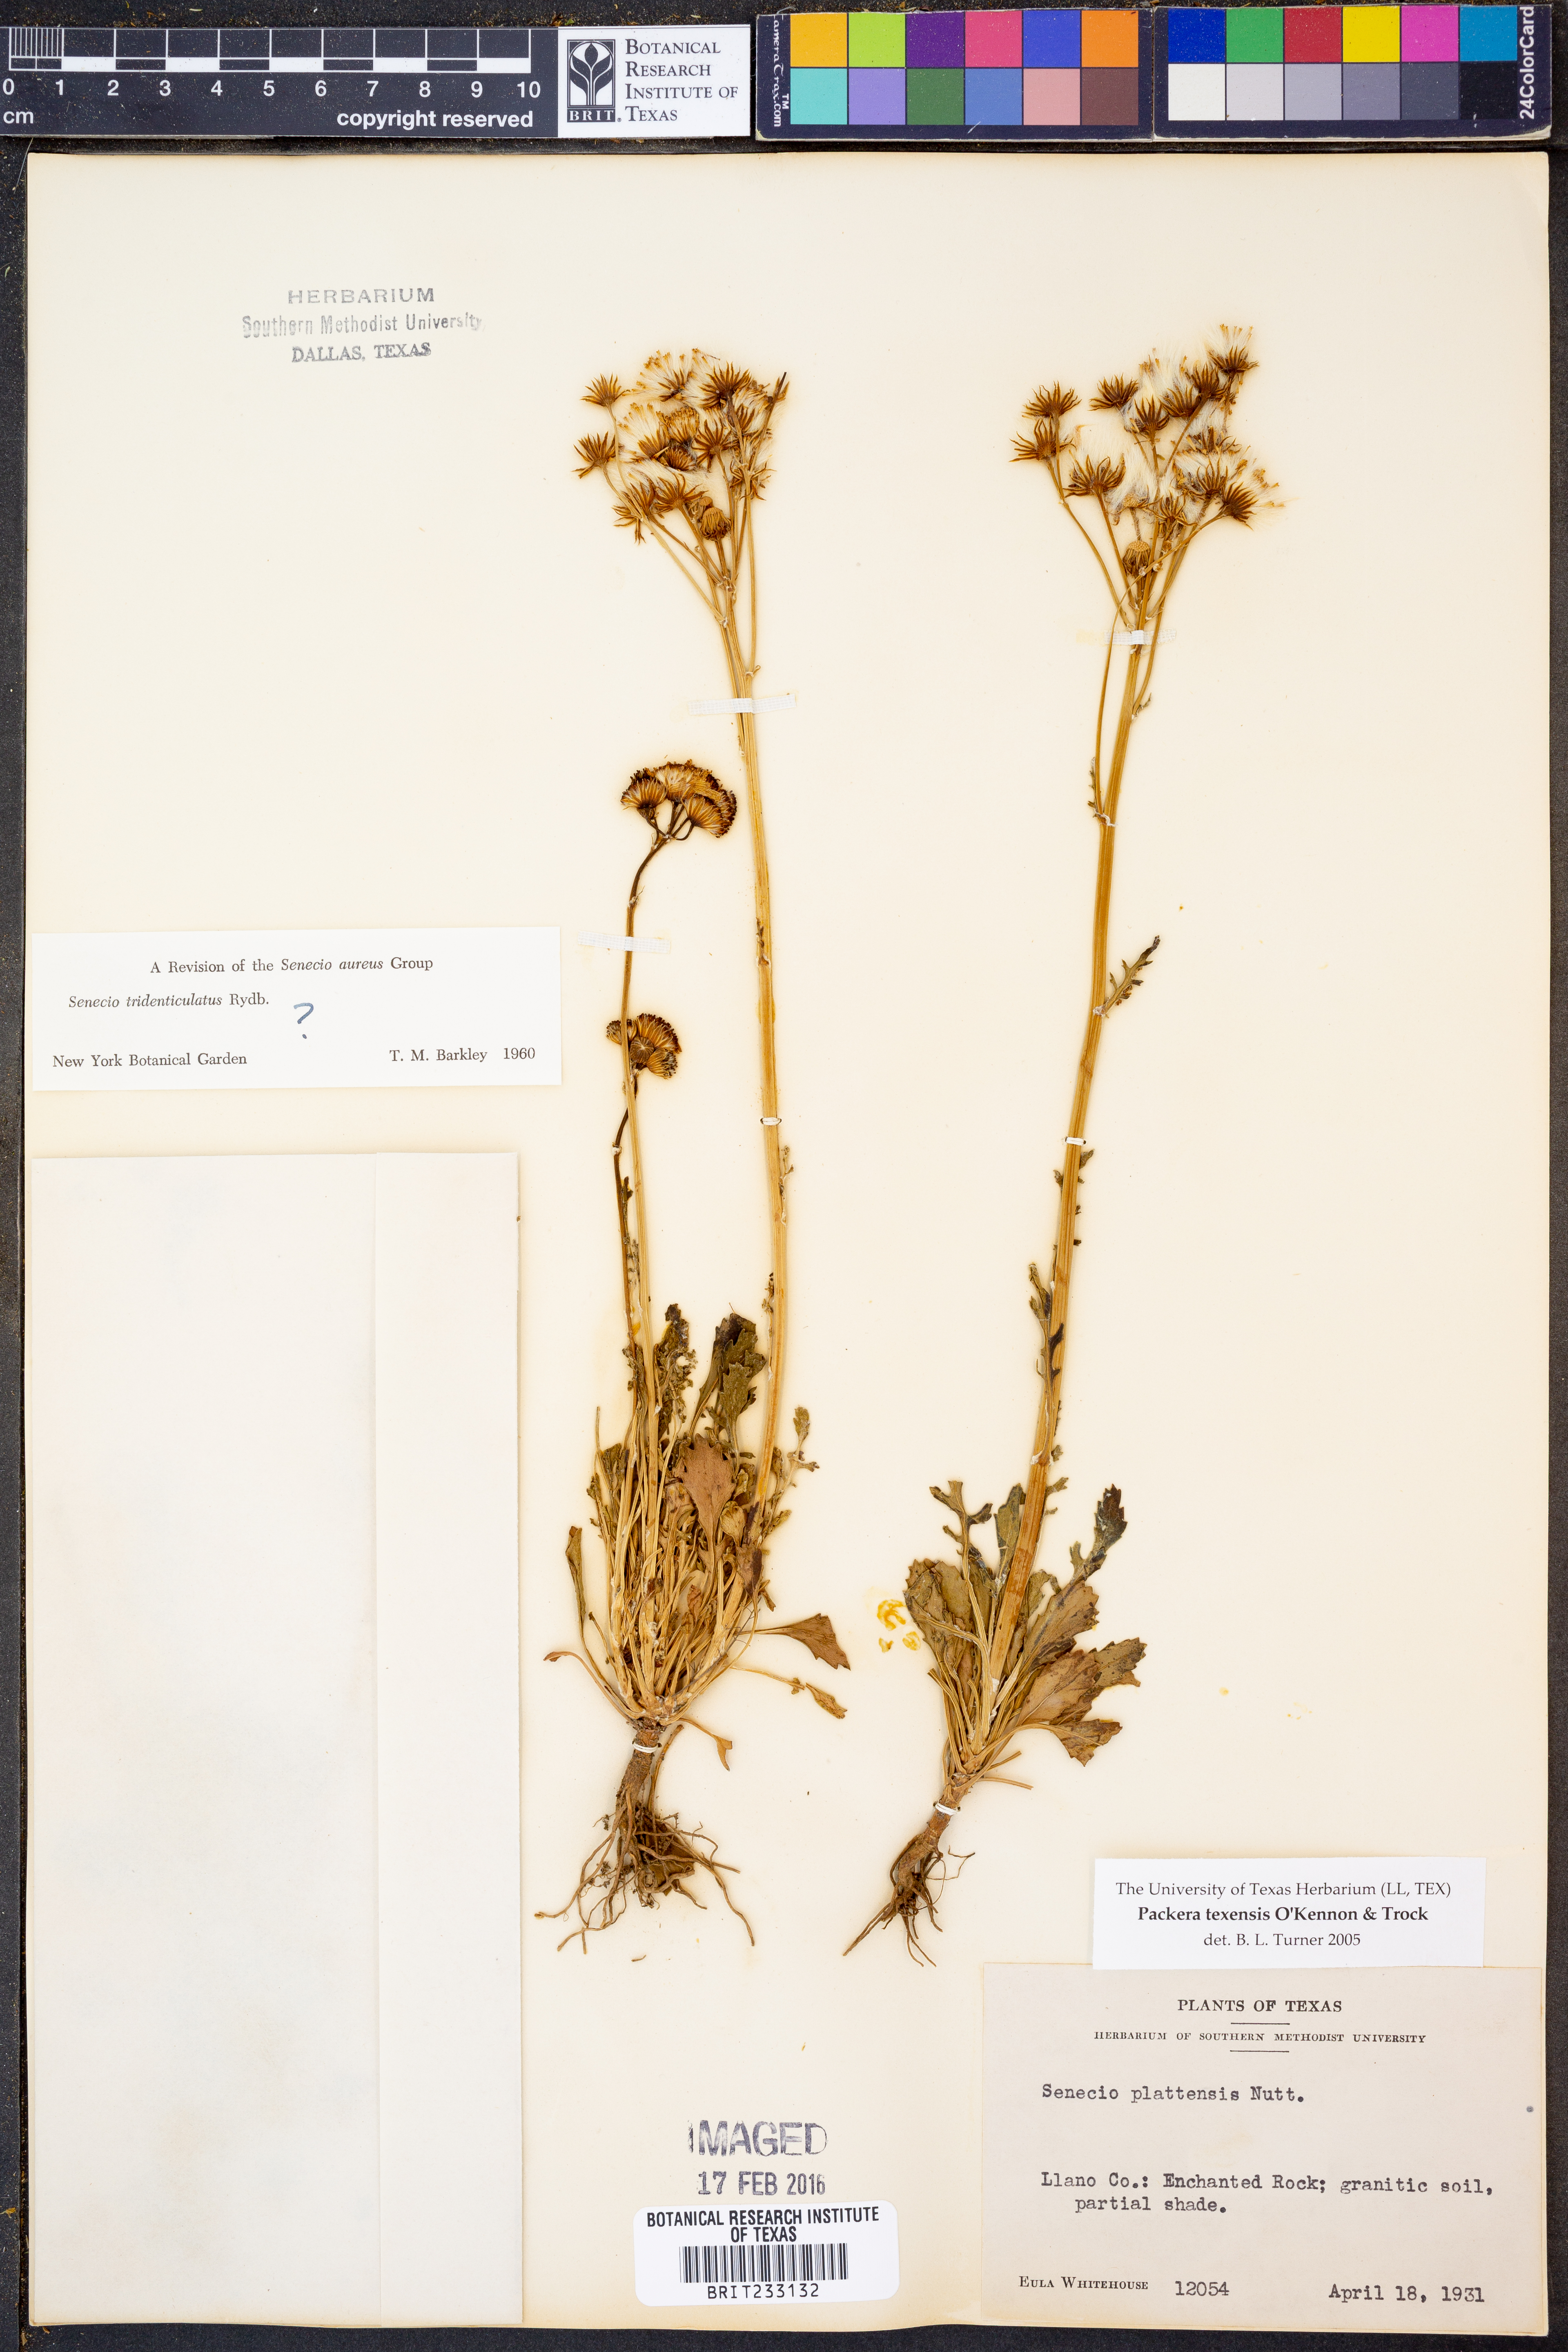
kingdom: Plantae
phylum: Tracheophyta
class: Magnoliopsida
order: Asterales
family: Asteraceae
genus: Packera
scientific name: Packera texensis
